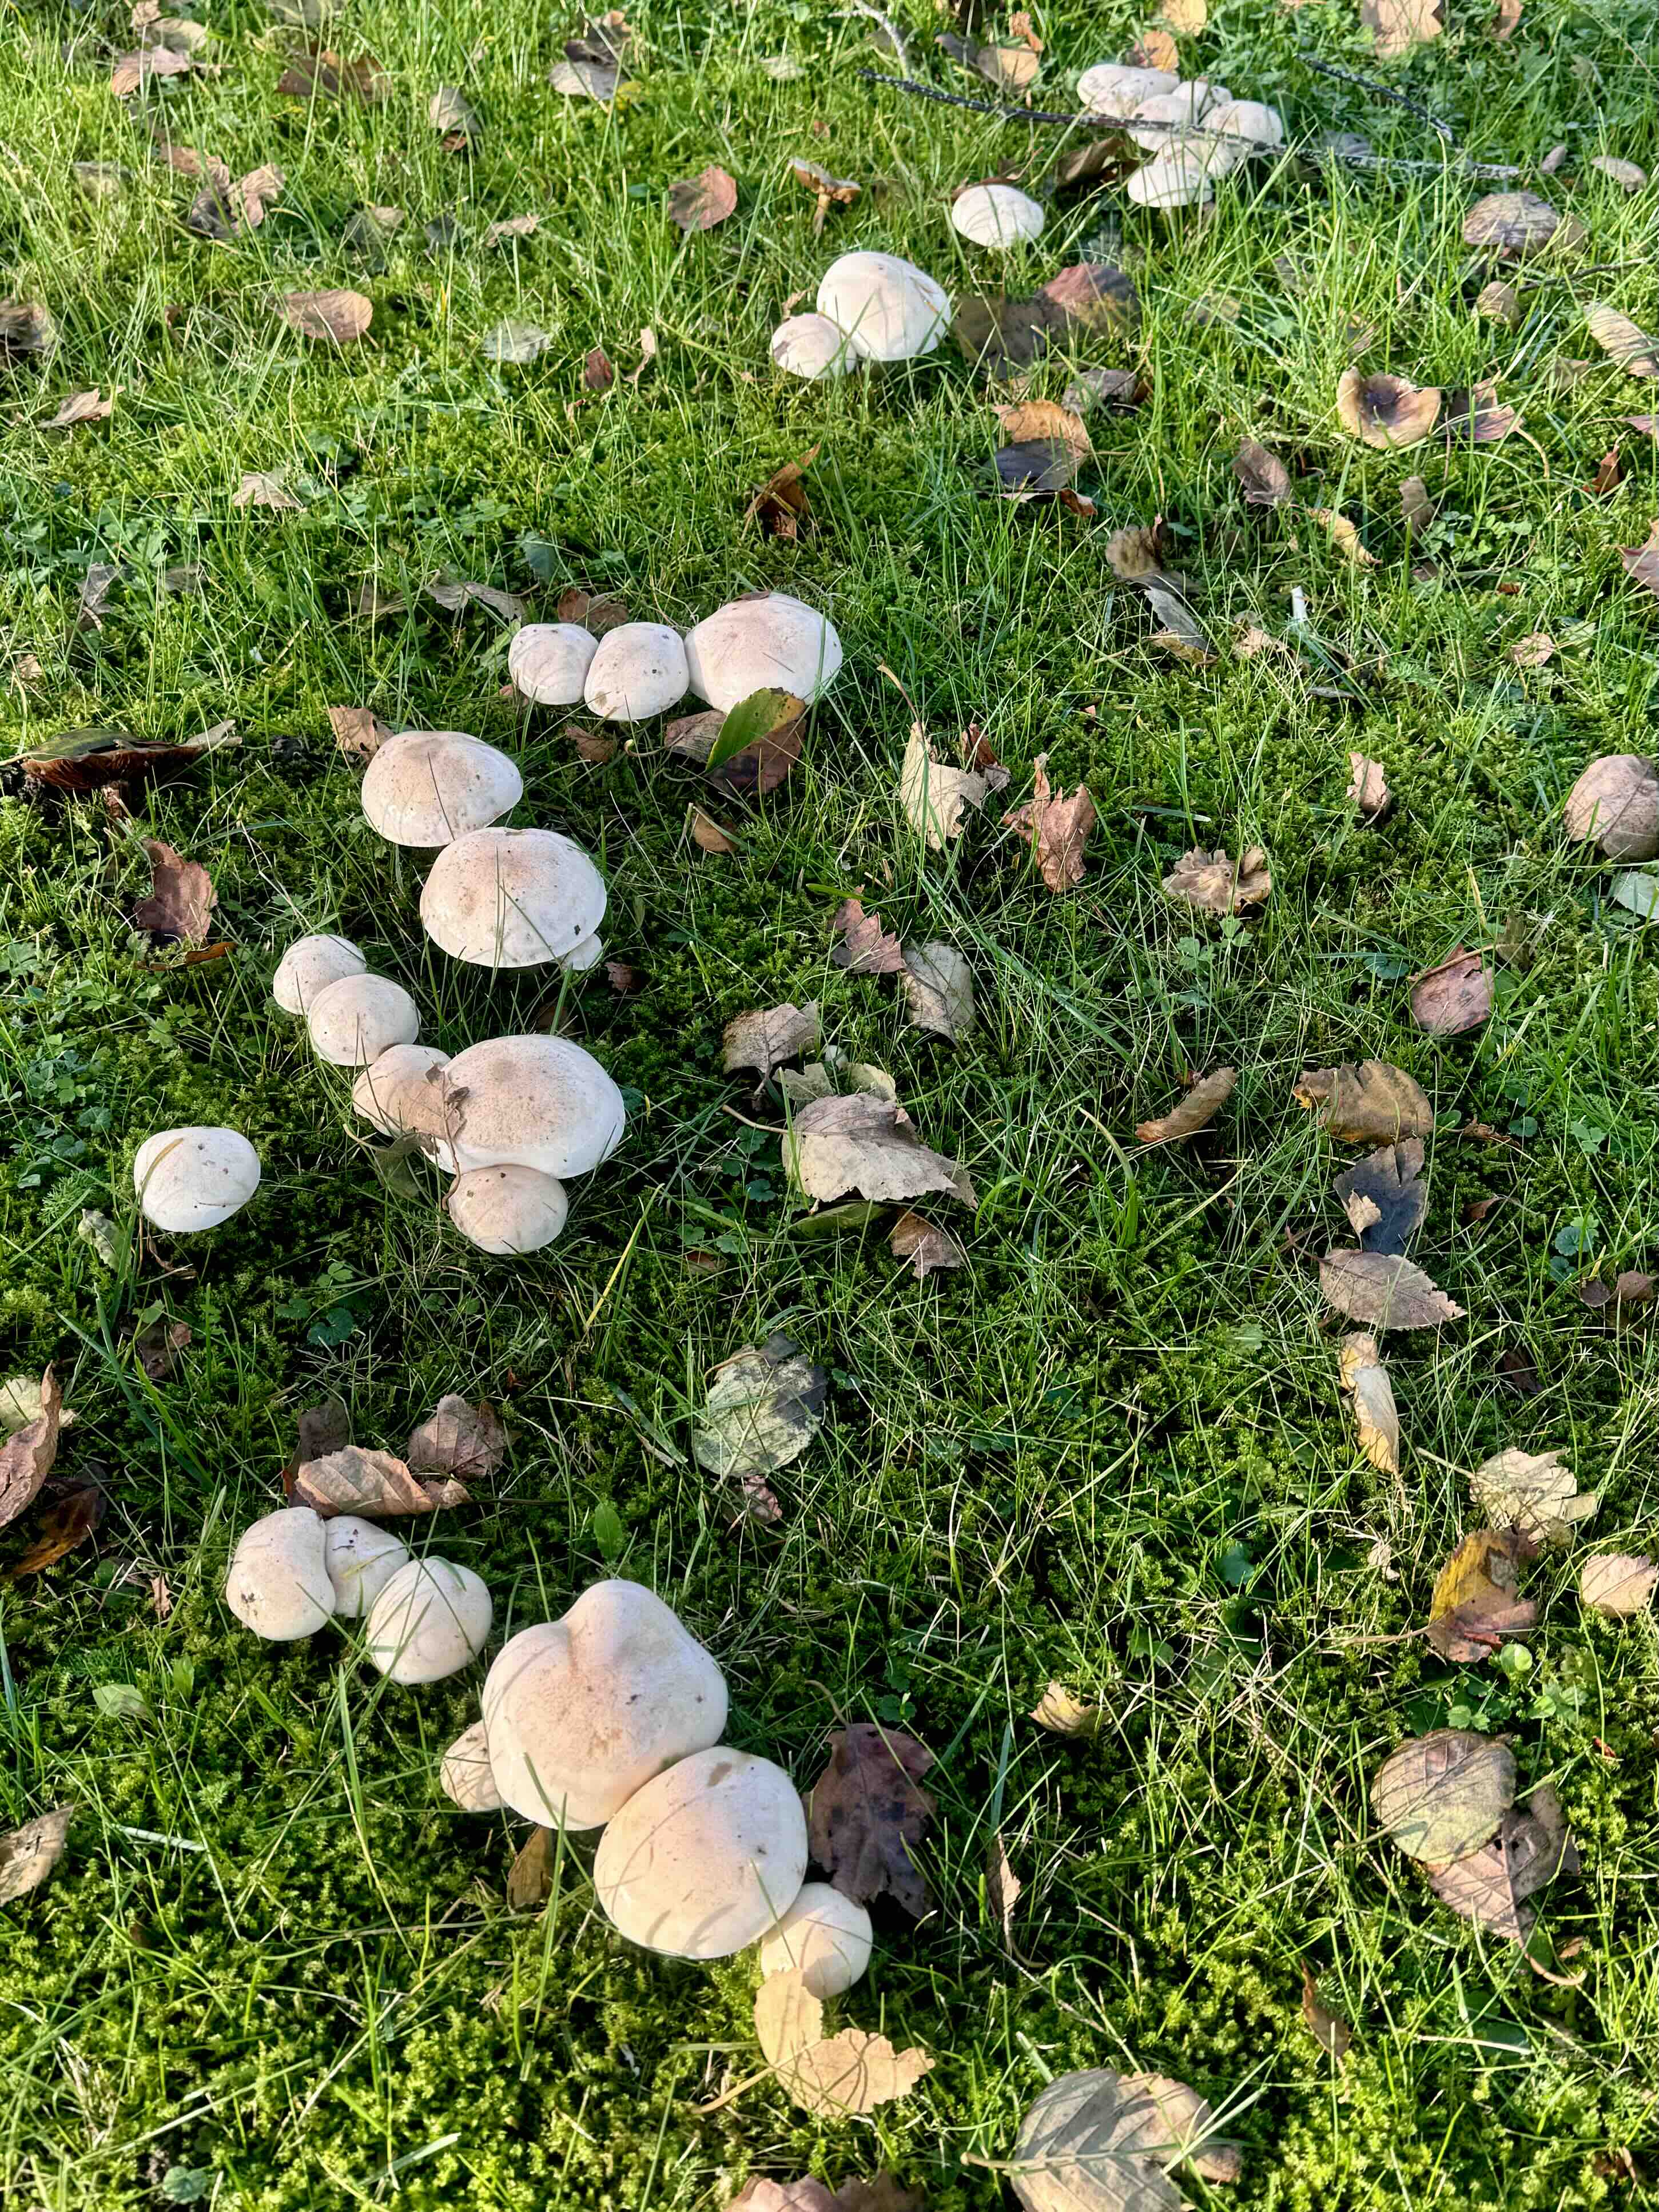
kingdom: Fungi
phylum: Basidiomycota
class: Agaricomycetes
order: Agaricales
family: Hymenogastraceae
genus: Hebeloma
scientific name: Hebeloma crustuliniforme
